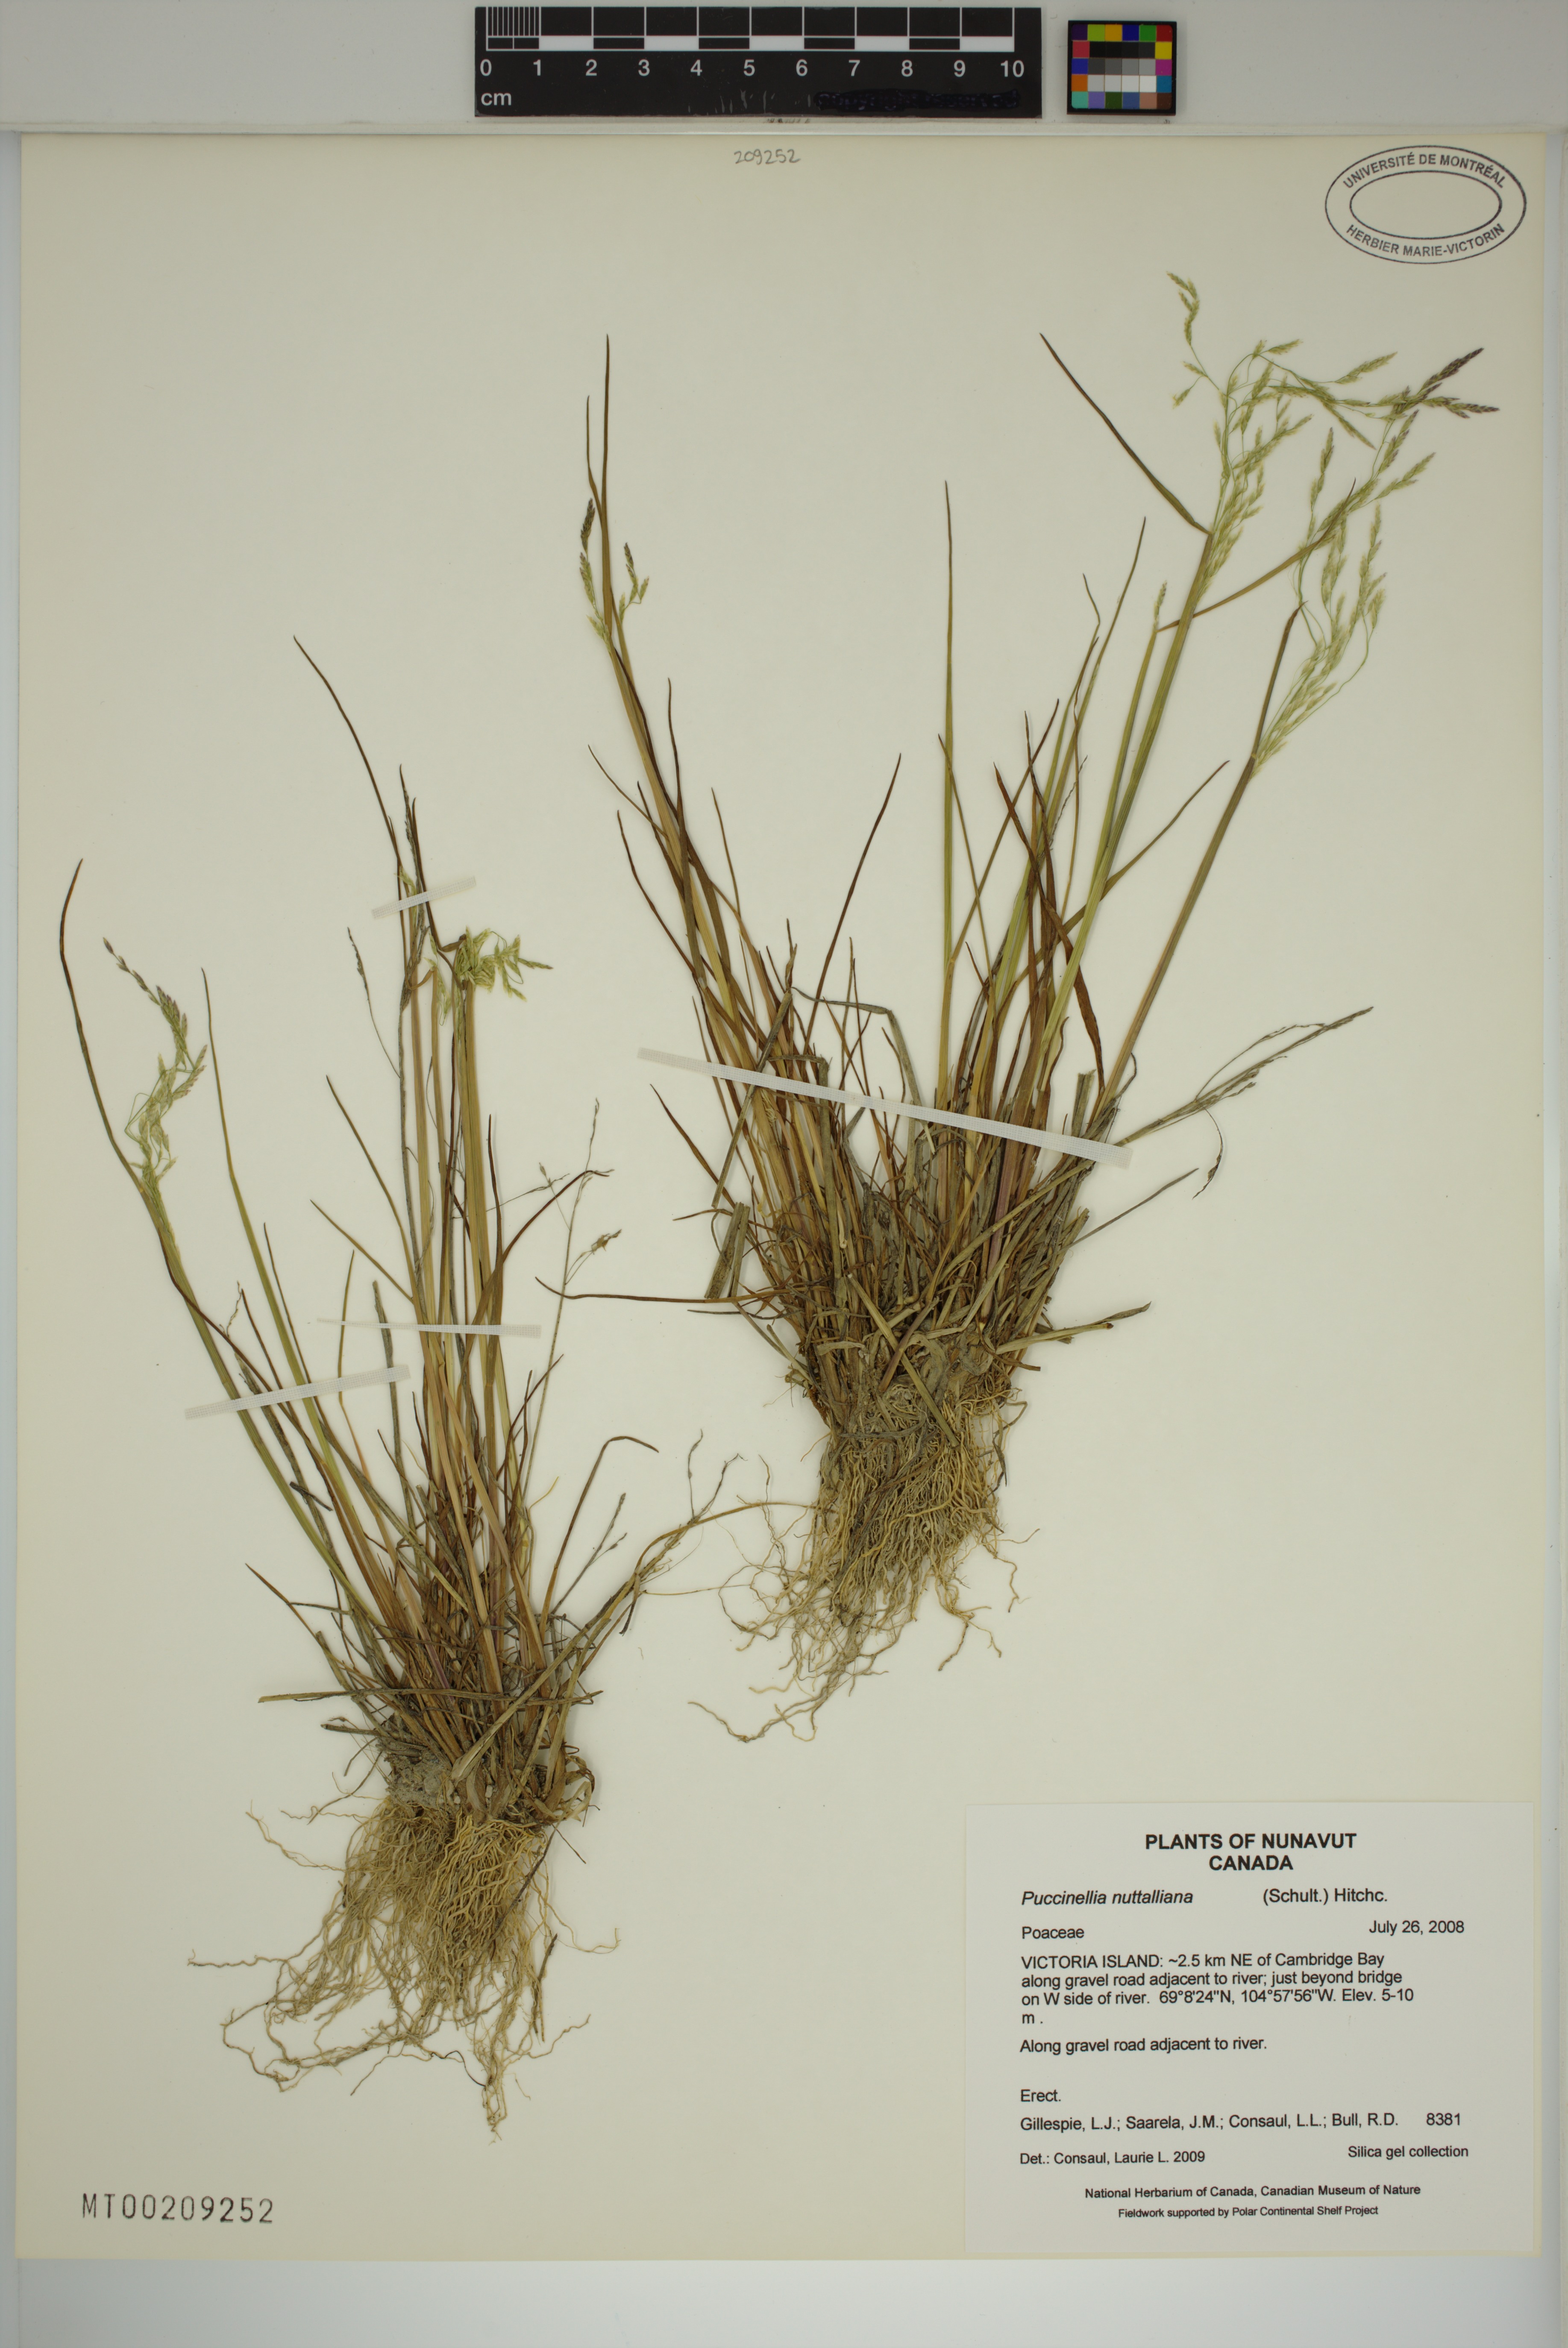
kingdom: Plantae
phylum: Tracheophyta
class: Liliopsida
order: Poales
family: Poaceae
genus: Puccinellia
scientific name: Puccinellia nuttalliana
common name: Nuttall's alkali grass
